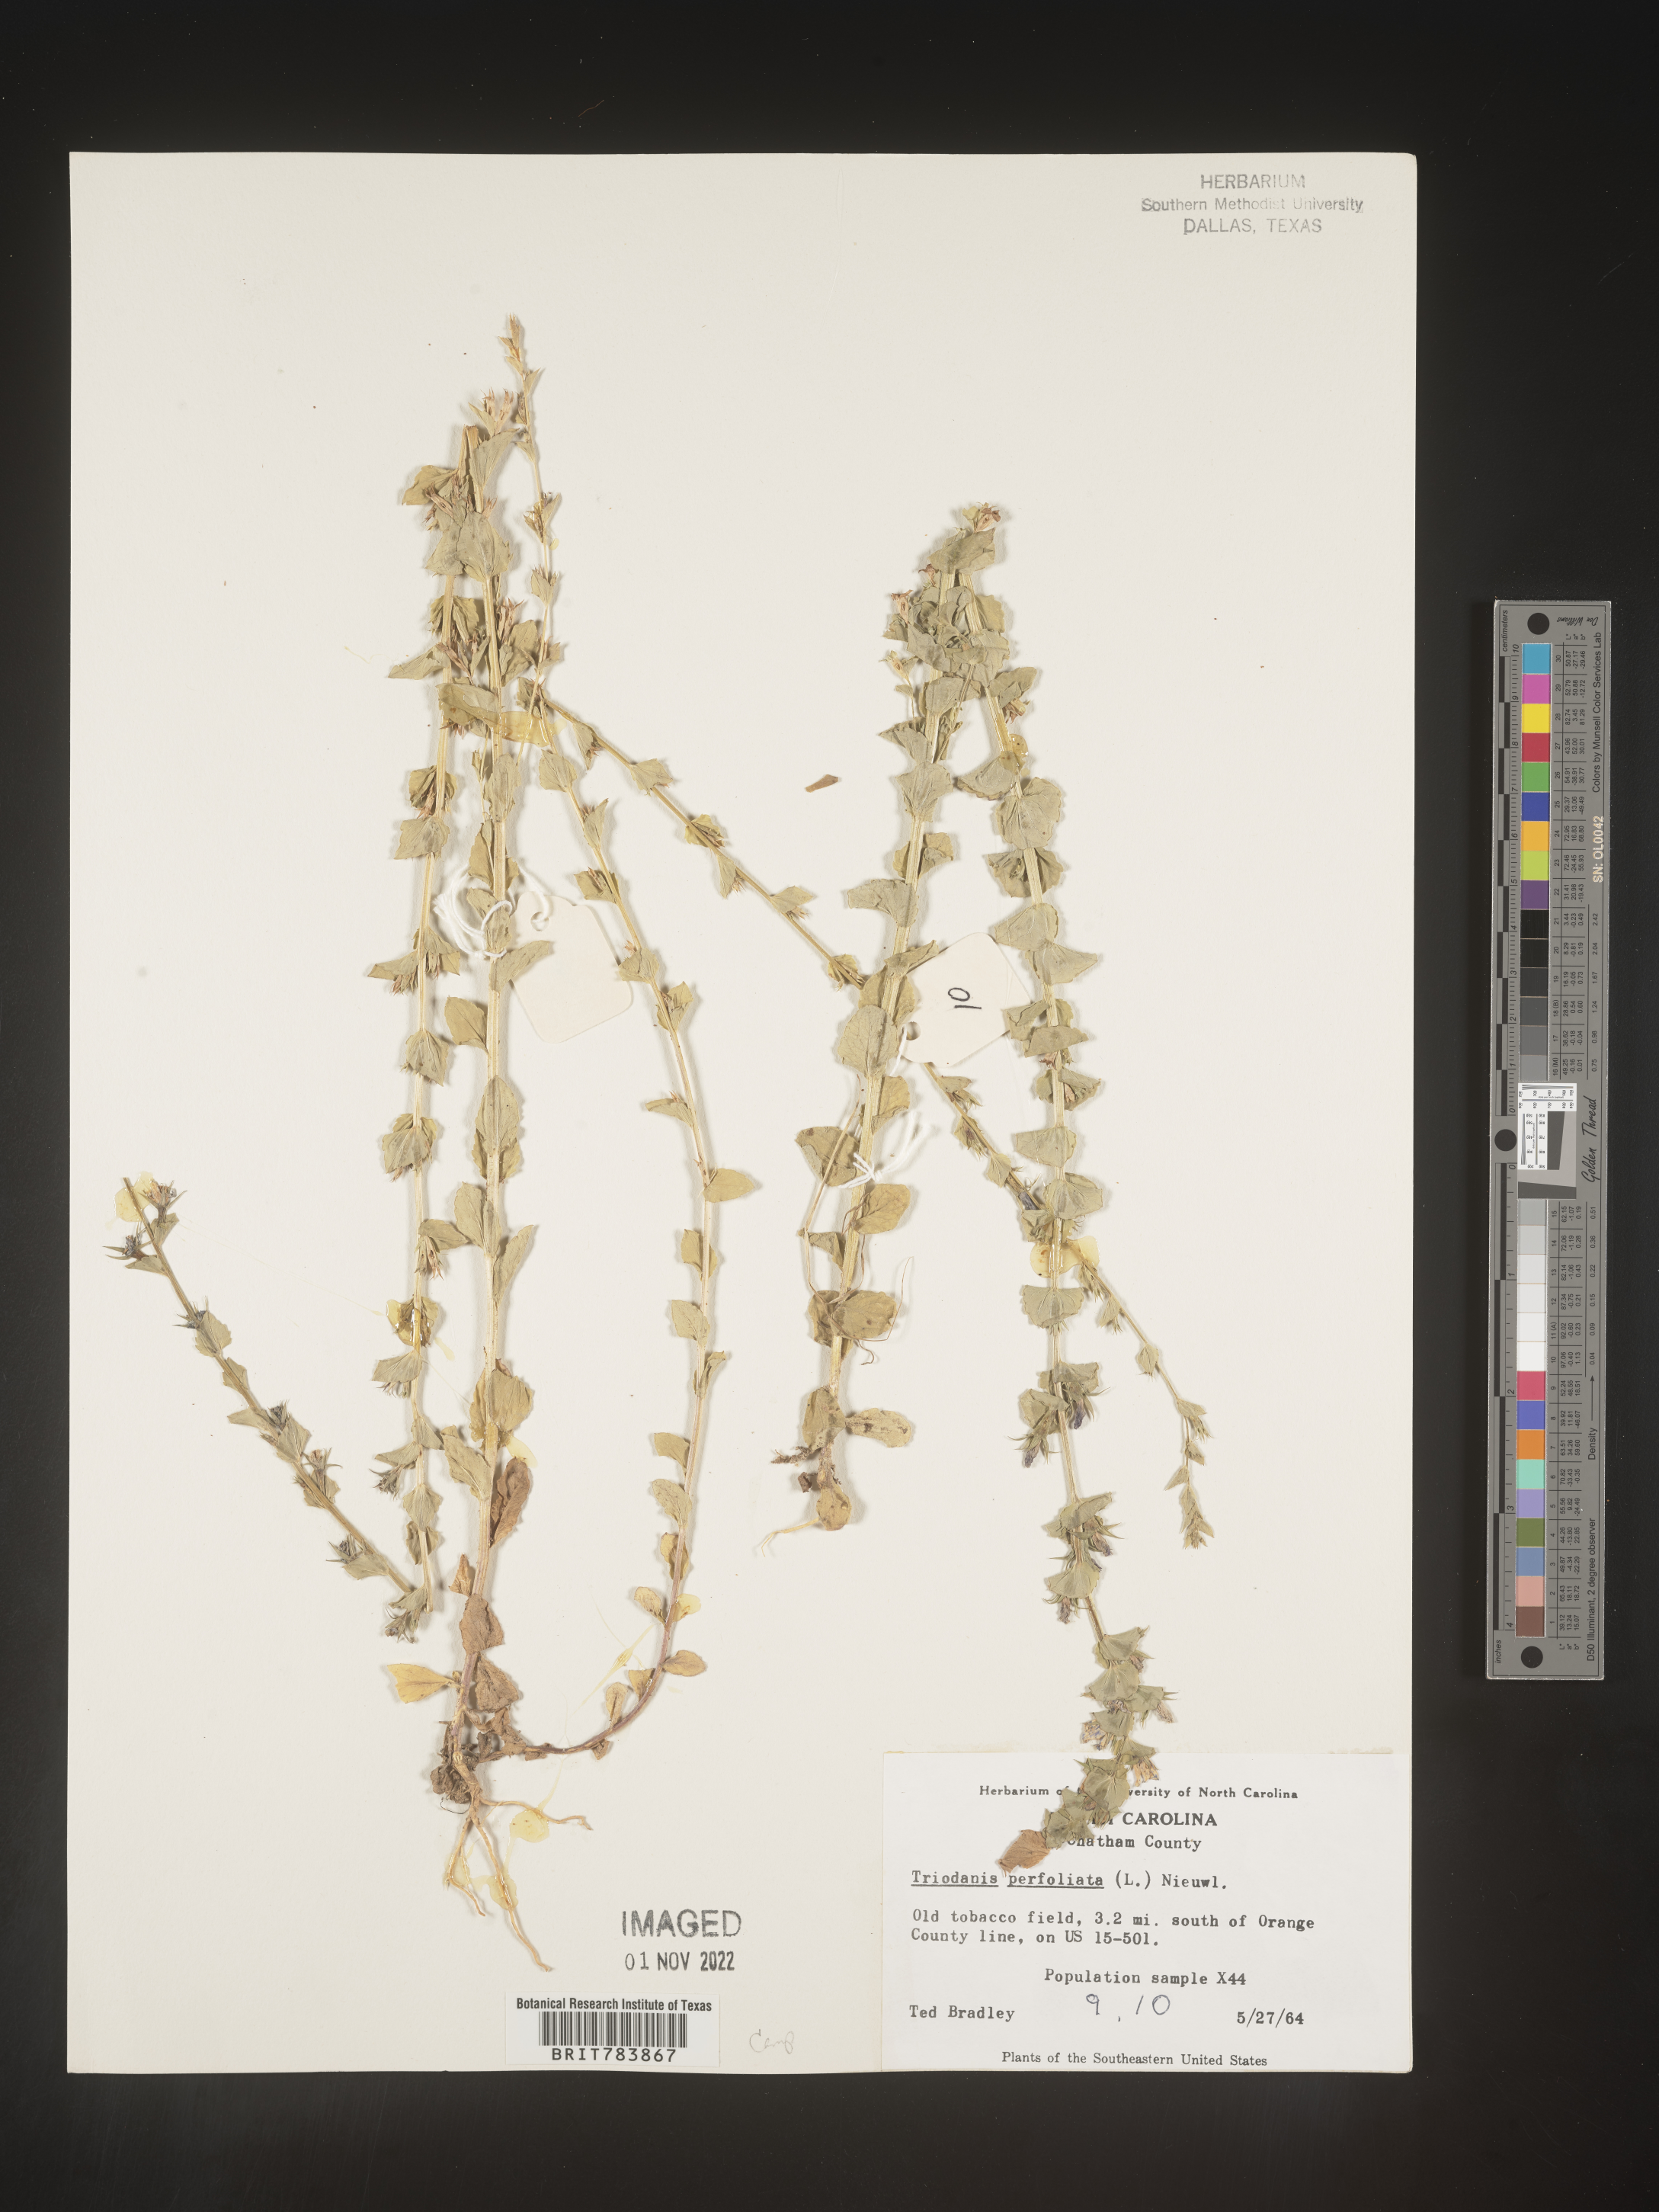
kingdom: Plantae
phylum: Tracheophyta
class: Magnoliopsida
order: Asterales
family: Campanulaceae
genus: Triodanis
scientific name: Triodanis perfoliata
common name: Clasping venus' looking-glass
